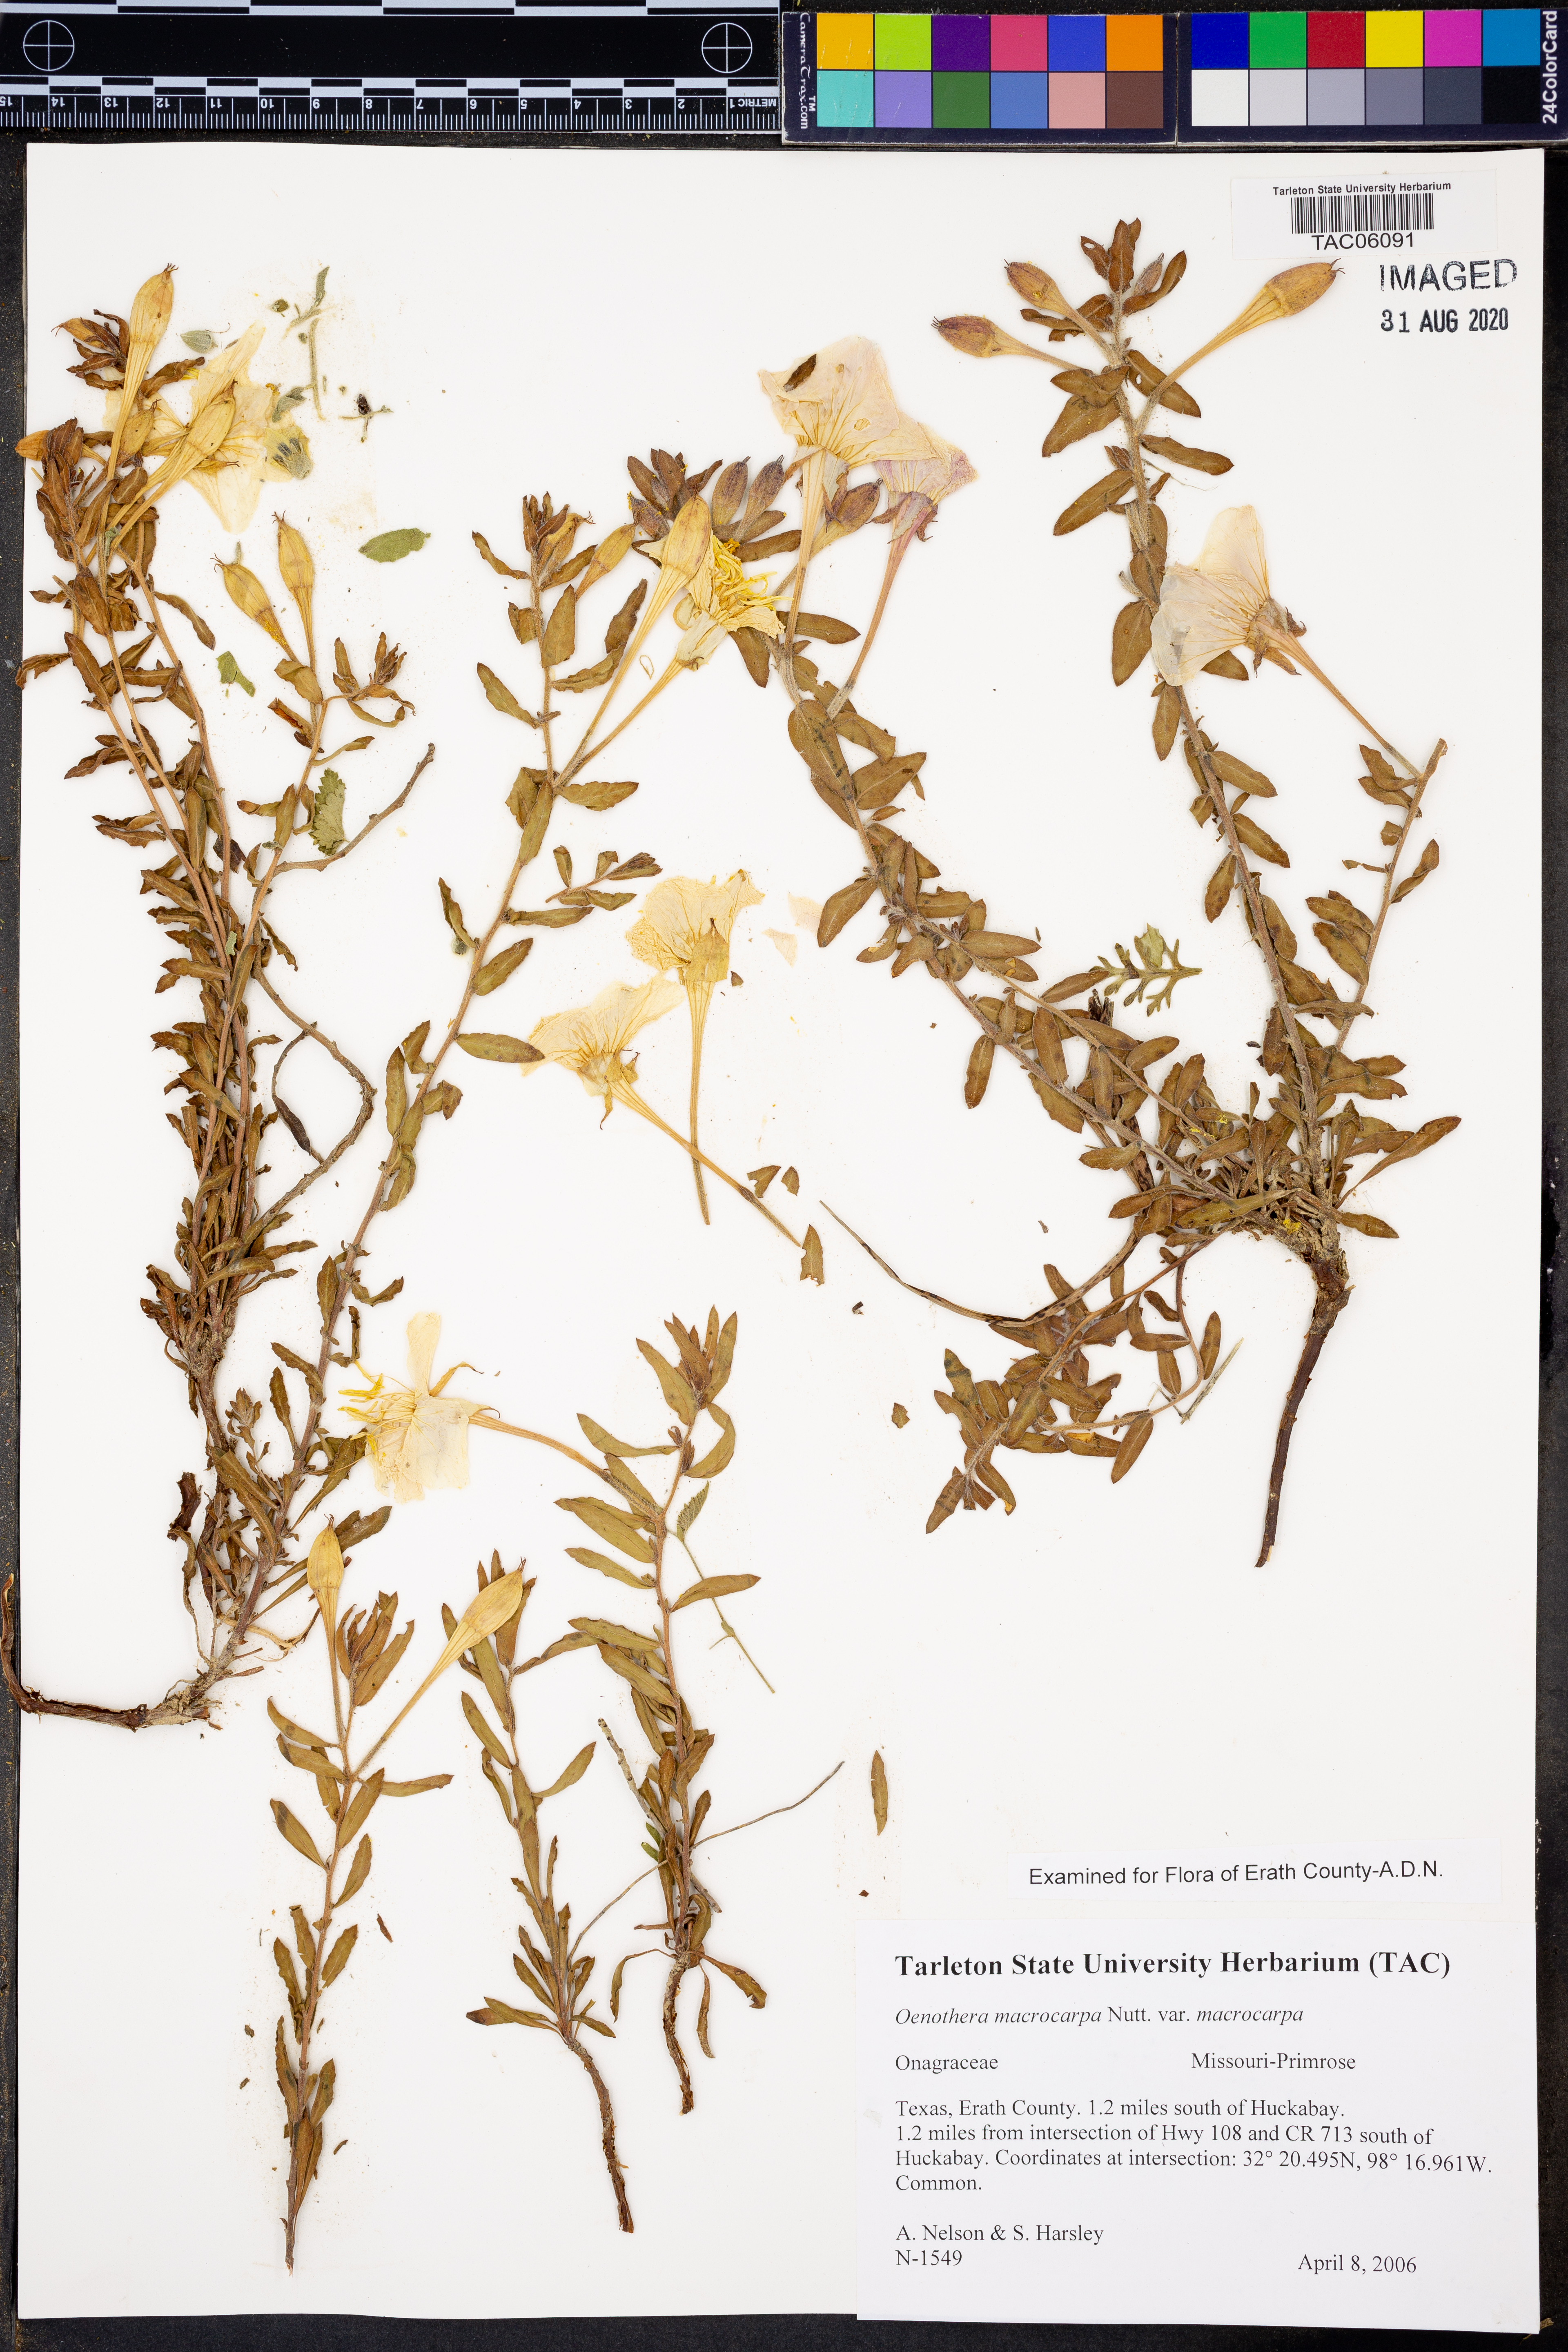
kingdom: Plantae
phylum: Tracheophyta
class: Magnoliopsida
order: Myrtales
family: Onagraceae
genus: Oenothera
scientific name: Oenothera macrocarpa
